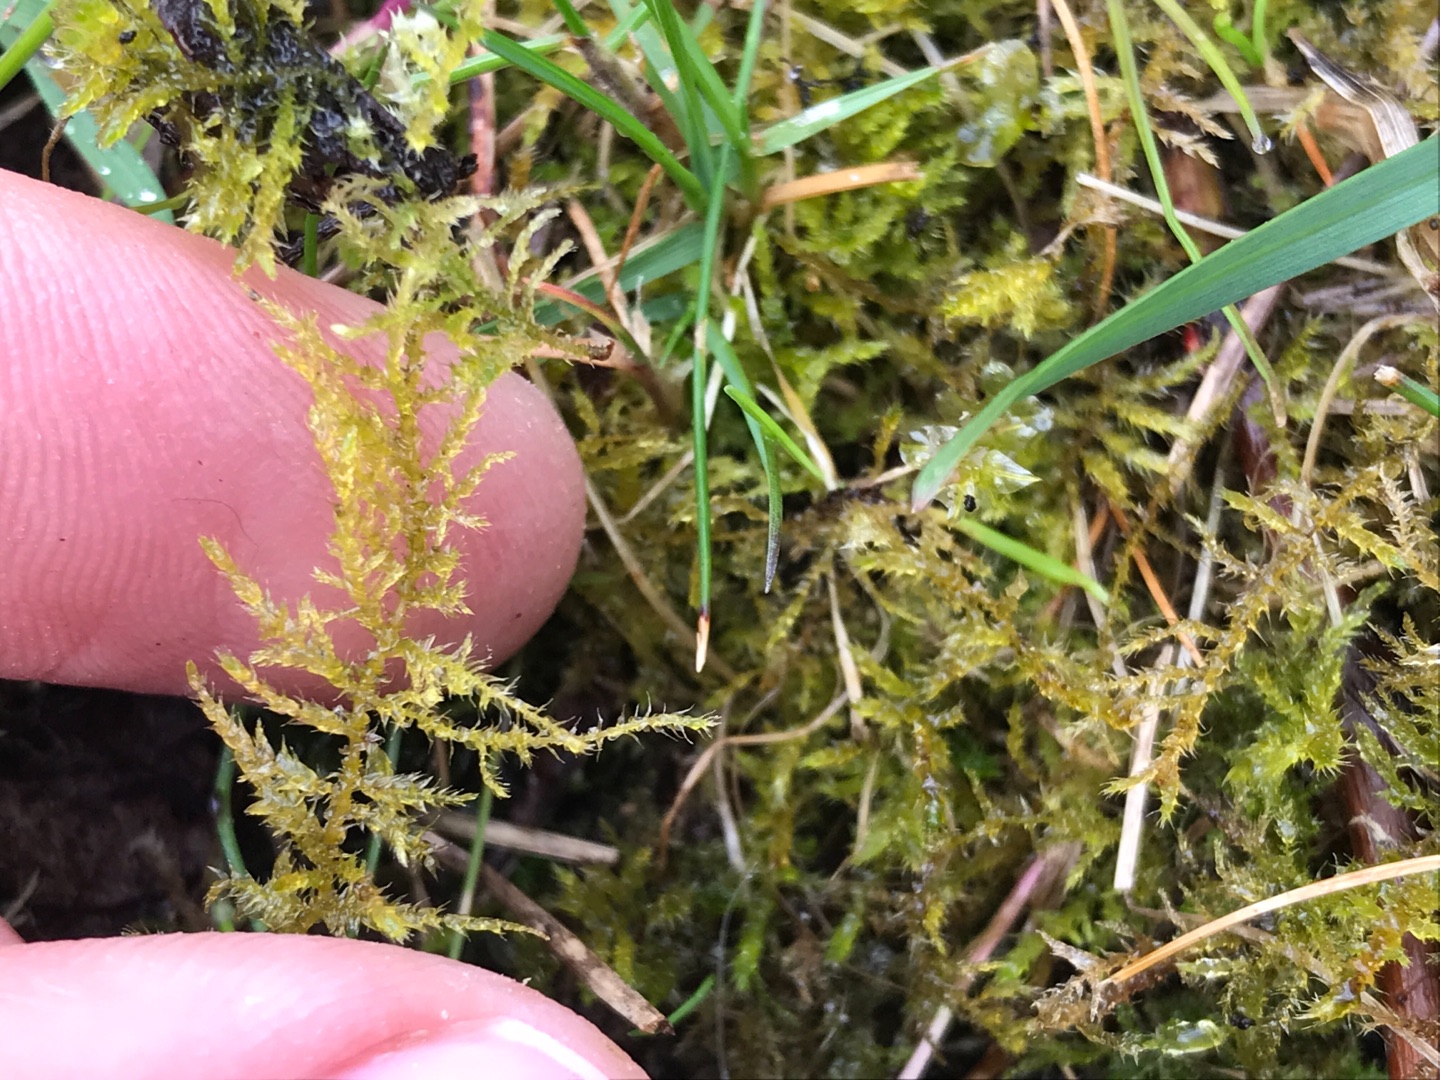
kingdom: Plantae
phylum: Bryophyta
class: Bryopsida
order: Hypnales
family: Brachytheciaceae
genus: Kindbergia
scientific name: Kindbergia praelonga
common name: Forskelligbladet vortetand
